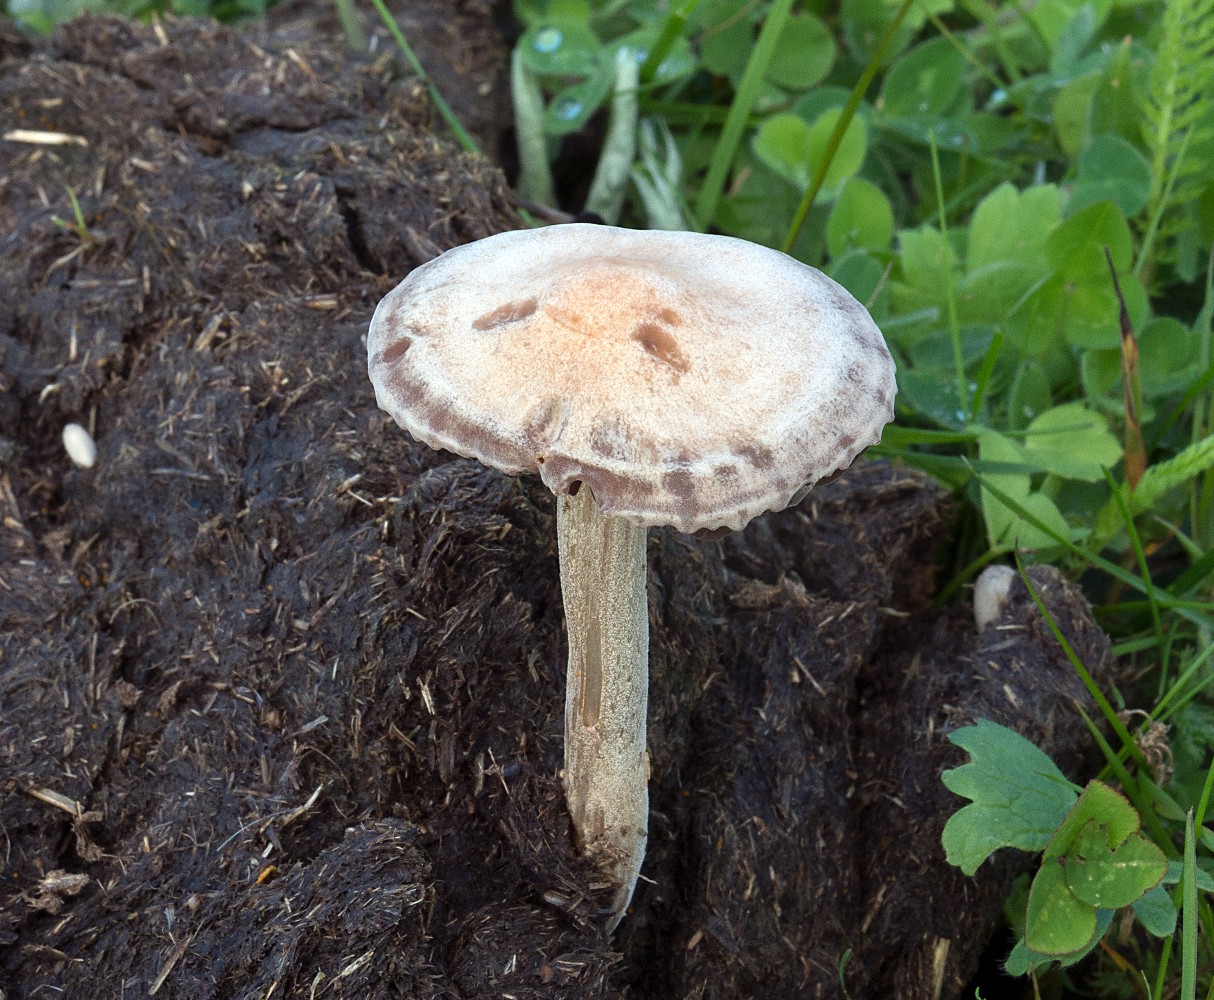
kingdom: Fungi
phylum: Basidiomycota
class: Agaricomycetes
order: Agaricales
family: Bolbitiaceae
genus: Panaeolus
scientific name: Panaeolus subfirmus
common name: fælled-glanshat
